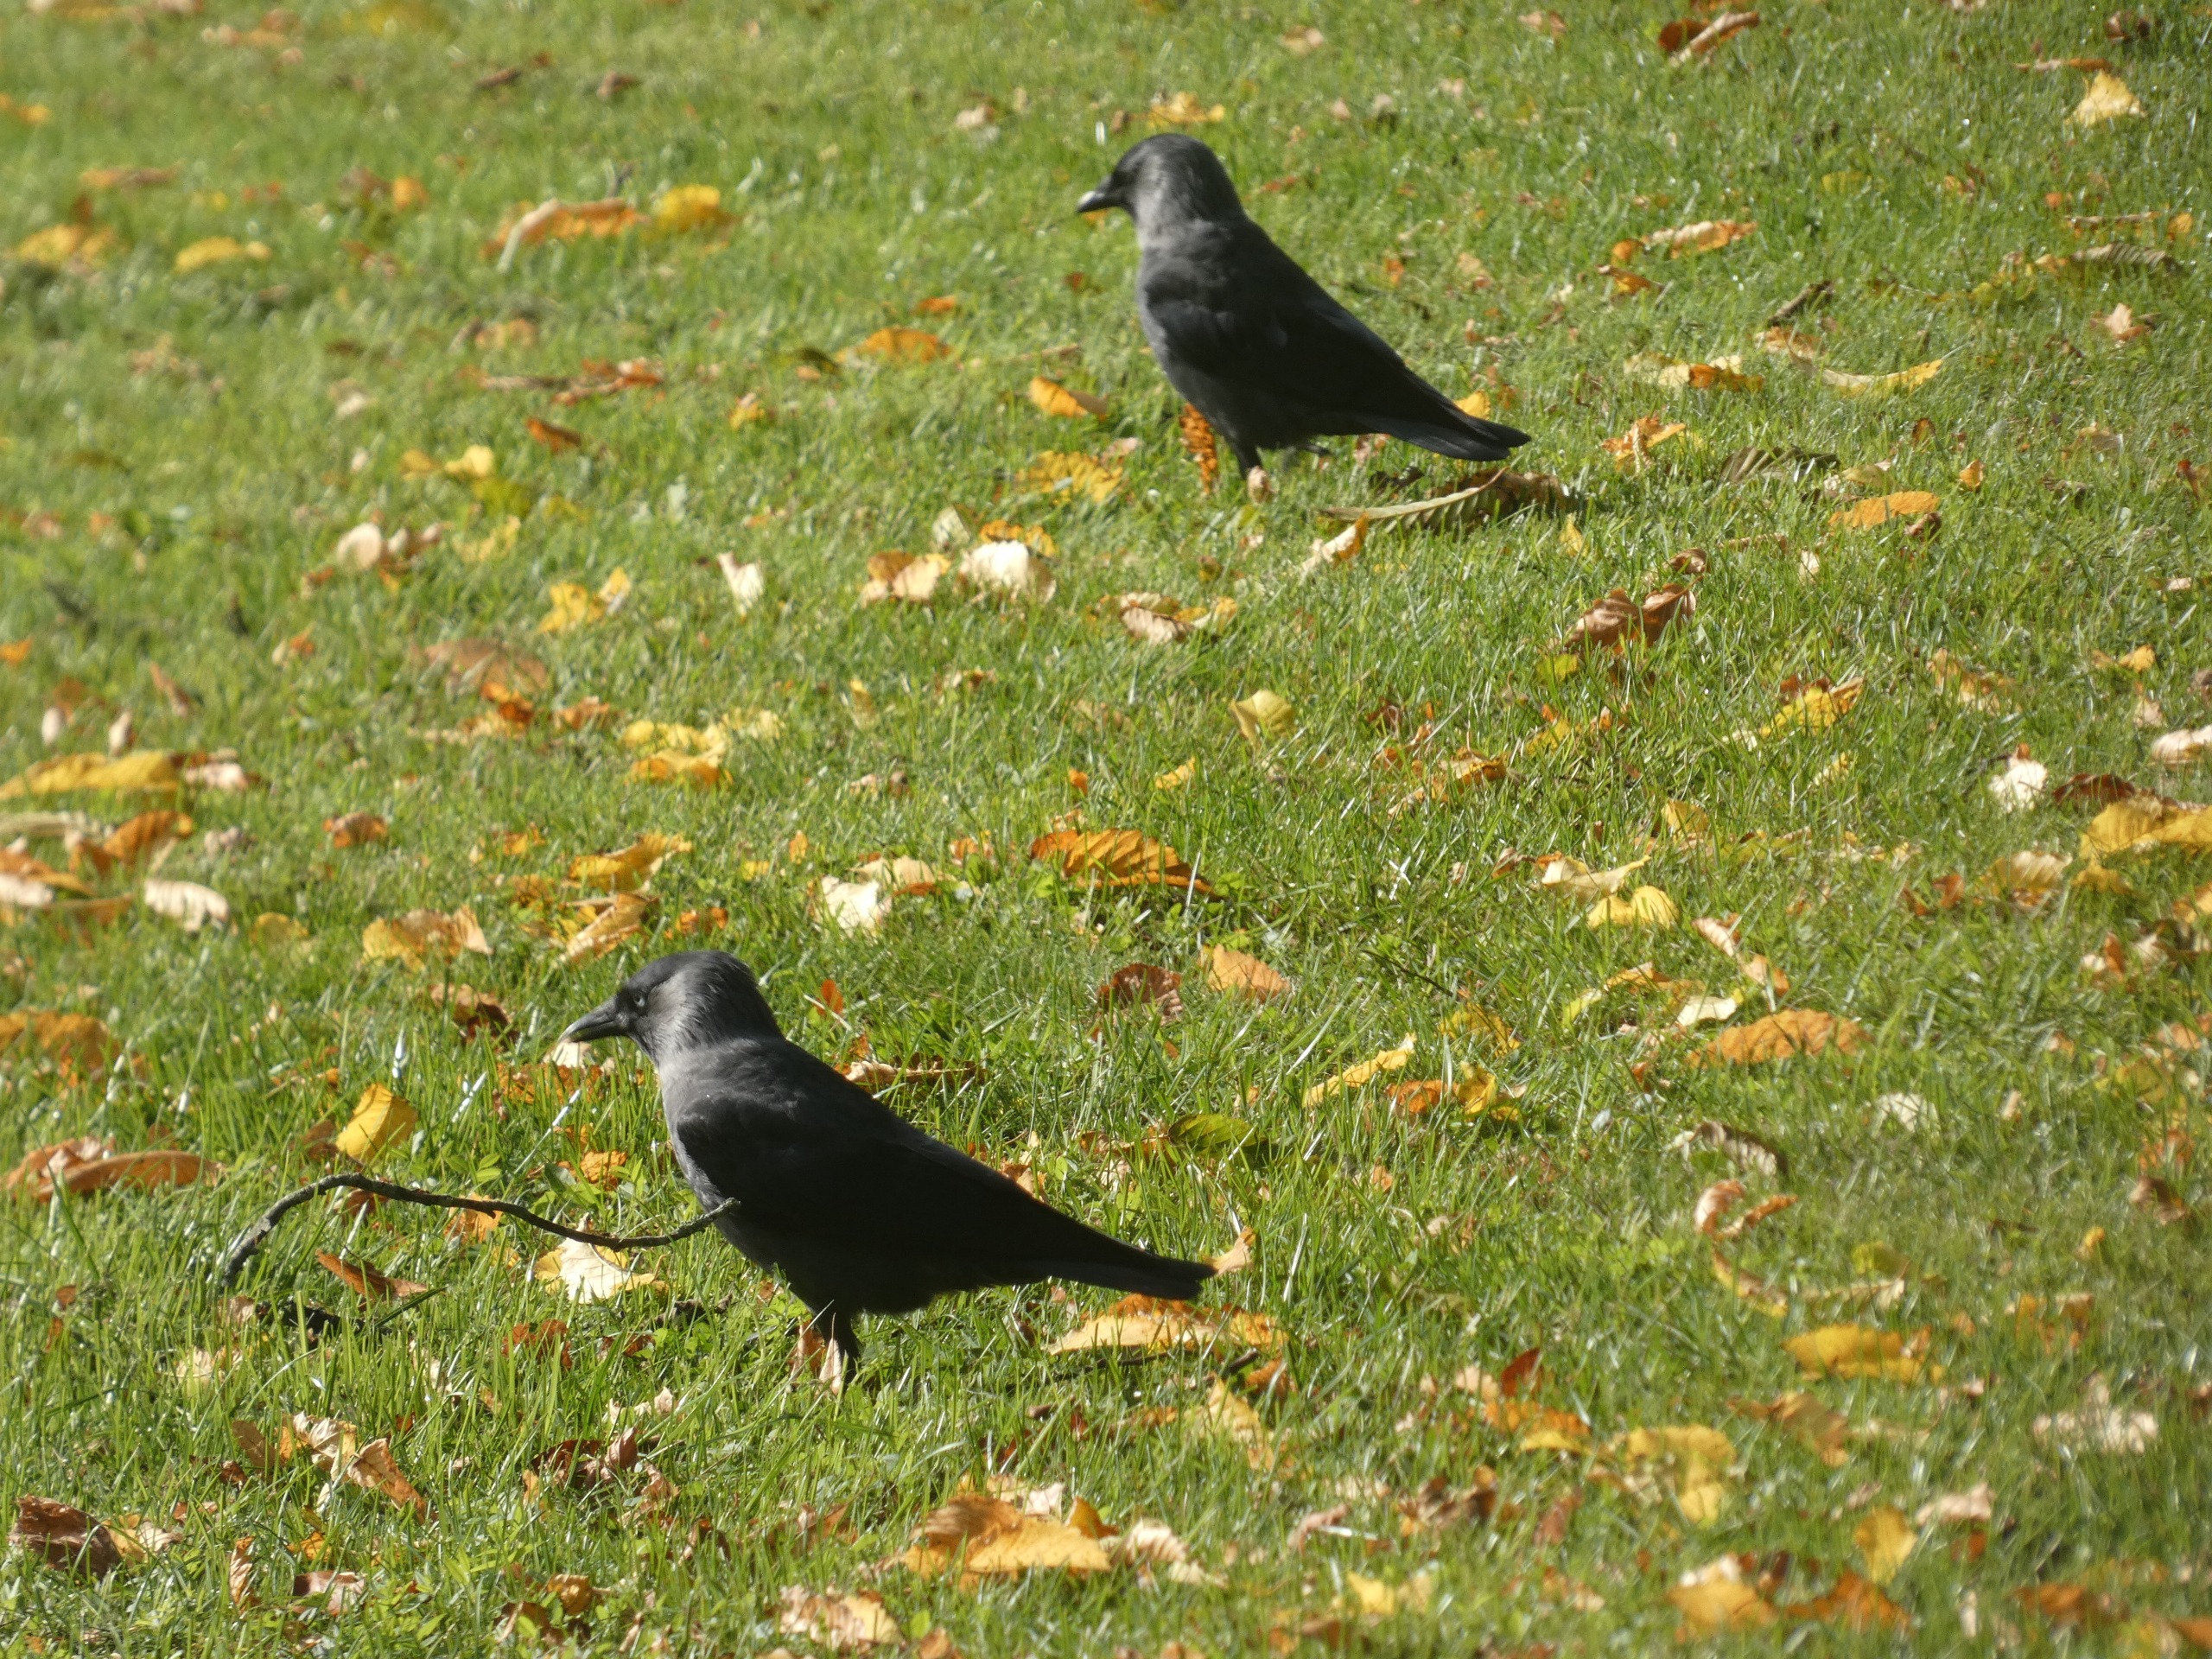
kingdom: Animalia
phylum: Chordata
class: Aves
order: Passeriformes
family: Corvidae
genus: Coloeus
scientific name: Coloeus monedula
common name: Allike
